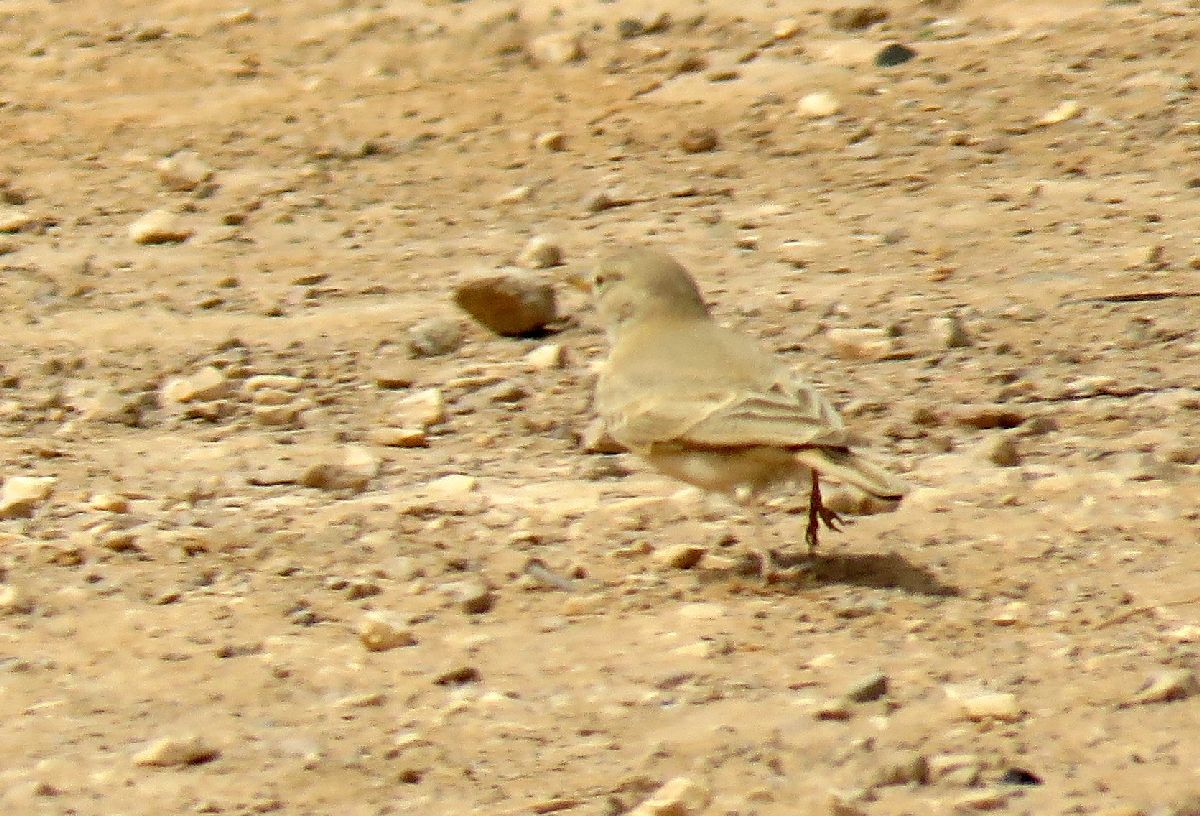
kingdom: Animalia
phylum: Chordata
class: Aves
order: Passeriformes
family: Alaudidae
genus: Ammomanes
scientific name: Ammomanes deserti
